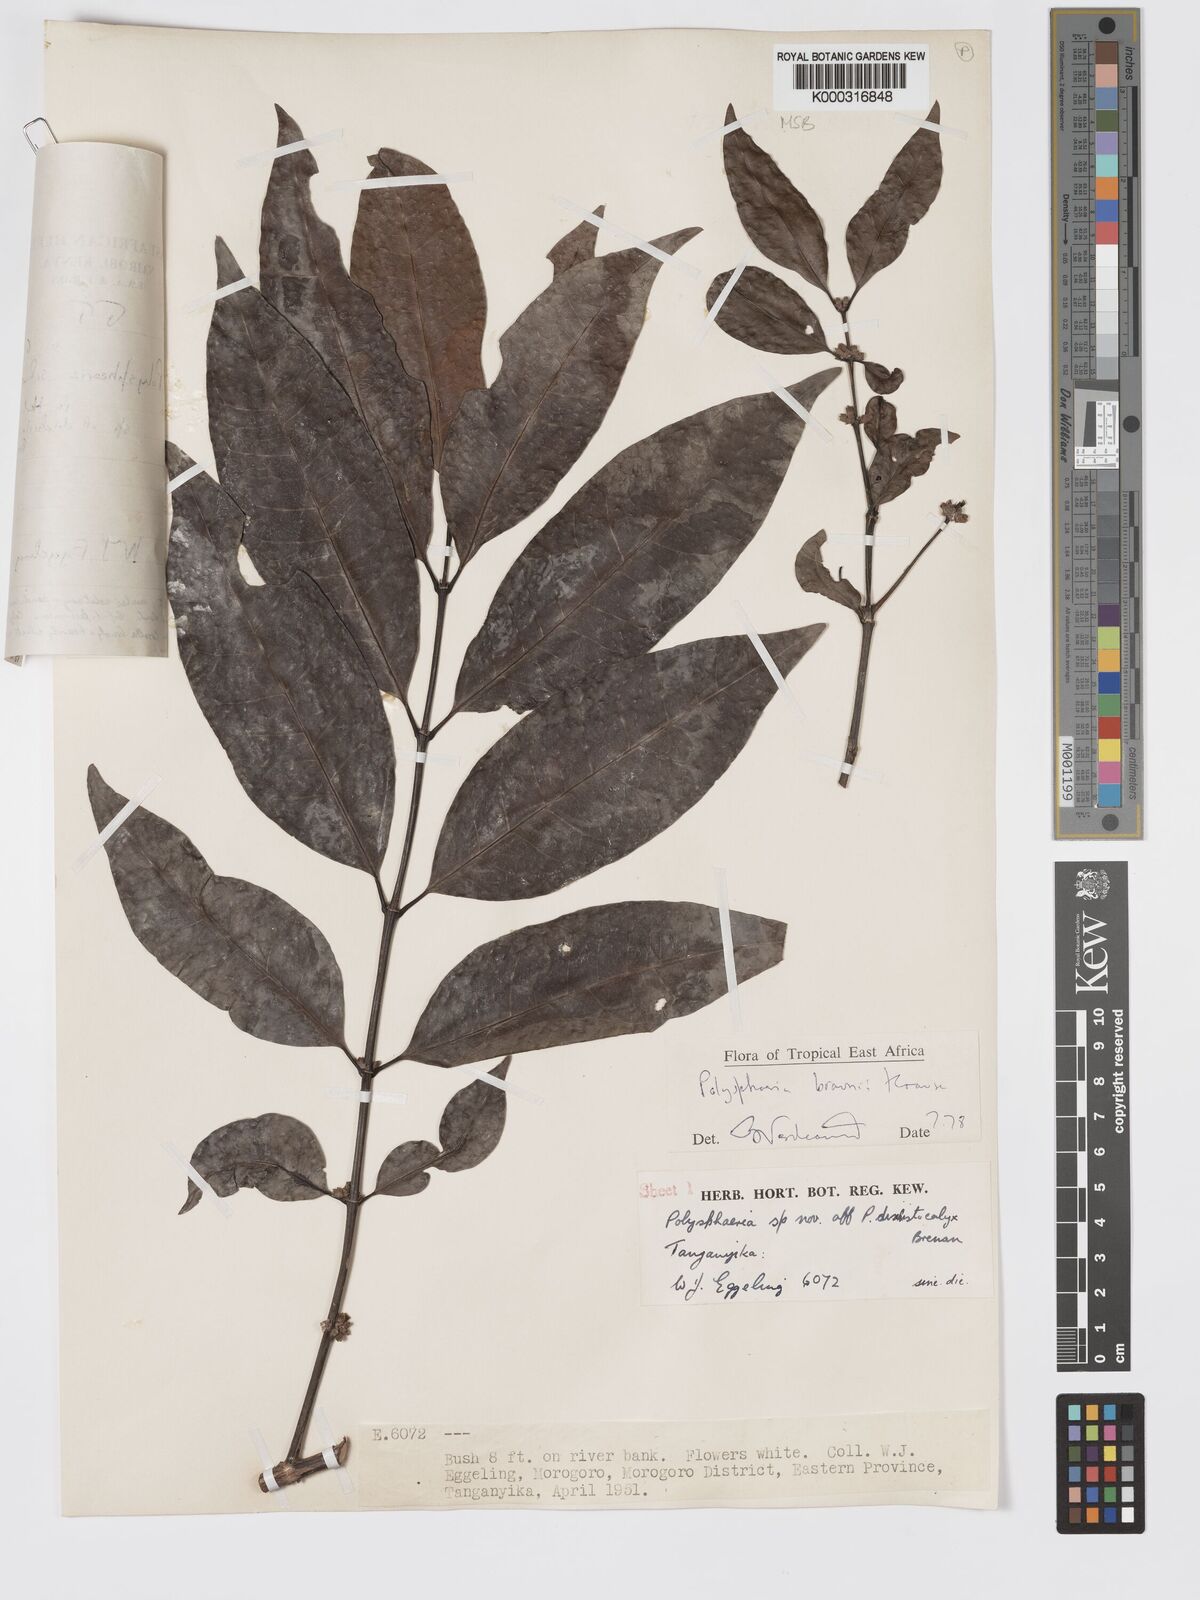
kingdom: Plantae
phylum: Tracheophyta
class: Magnoliopsida
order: Gentianales
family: Rubiaceae
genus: Polysphaeria
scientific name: Polysphaeria braunii
